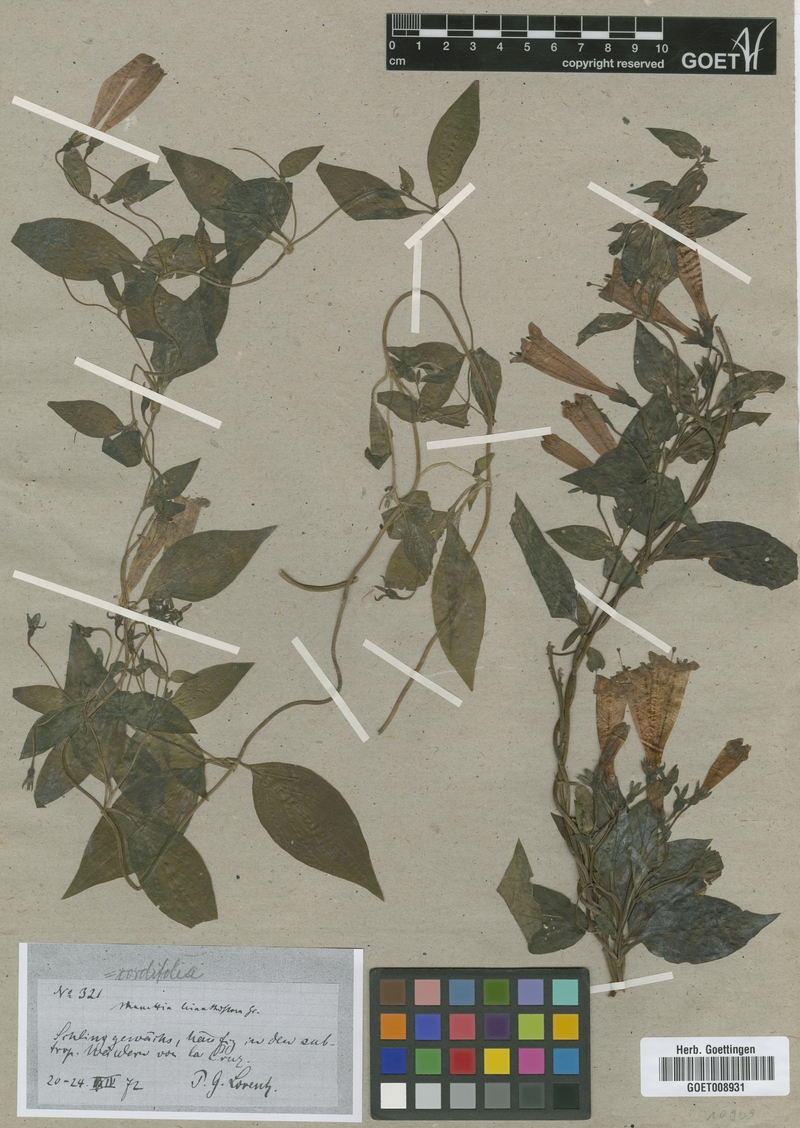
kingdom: Plantae
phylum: Tracheophyta
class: Magnoliopsida
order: Gentianales
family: Rubiaceae
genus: Manettia
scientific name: Manettia cordifolia
